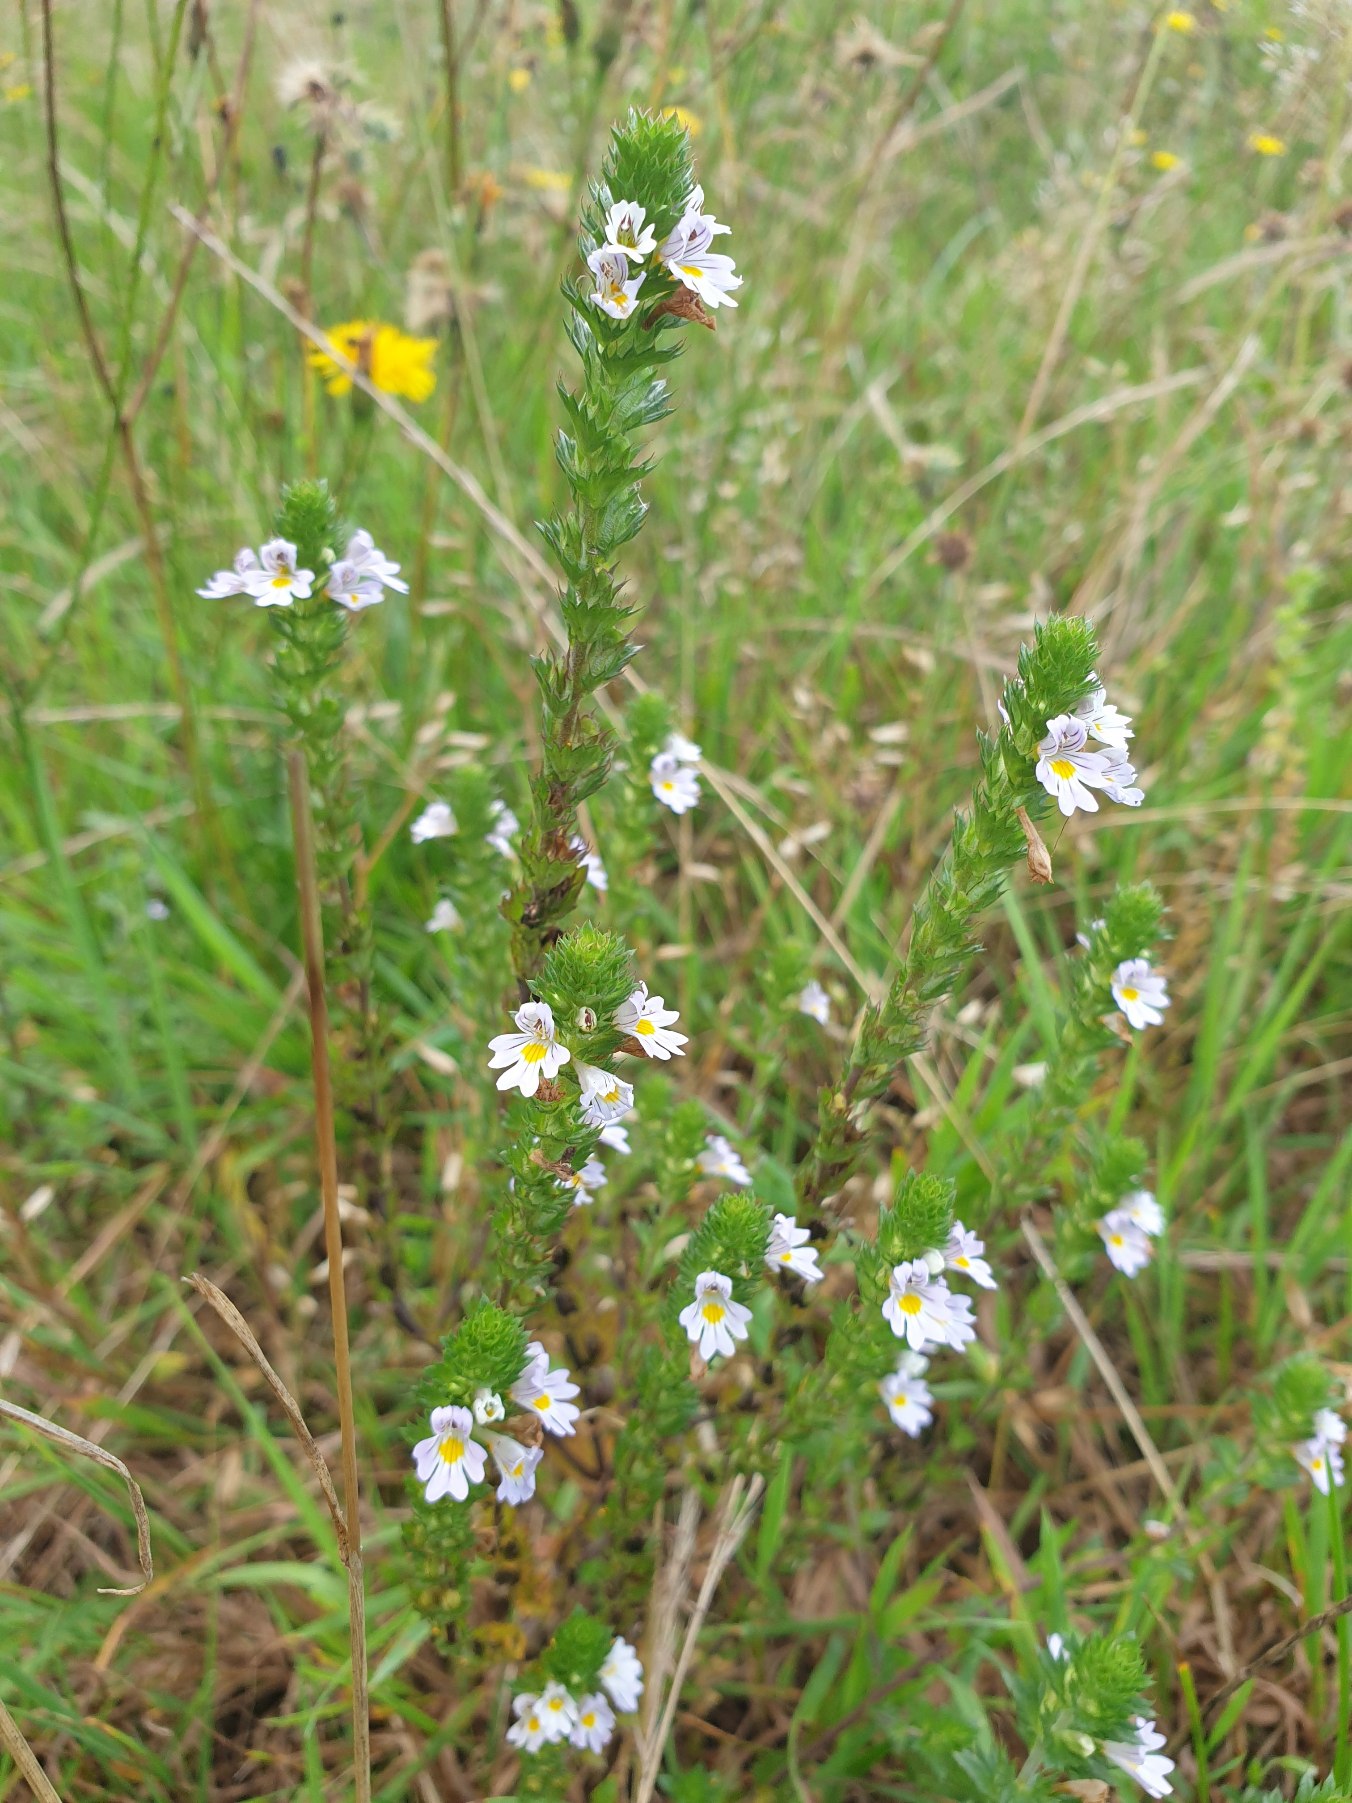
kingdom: Plantae
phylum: Tracheophyta
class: Magnoliopsida
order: Lamiales
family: Orobanchaceae
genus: Euphrasia
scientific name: Euphrasia stricta
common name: Spids øjentrøst
